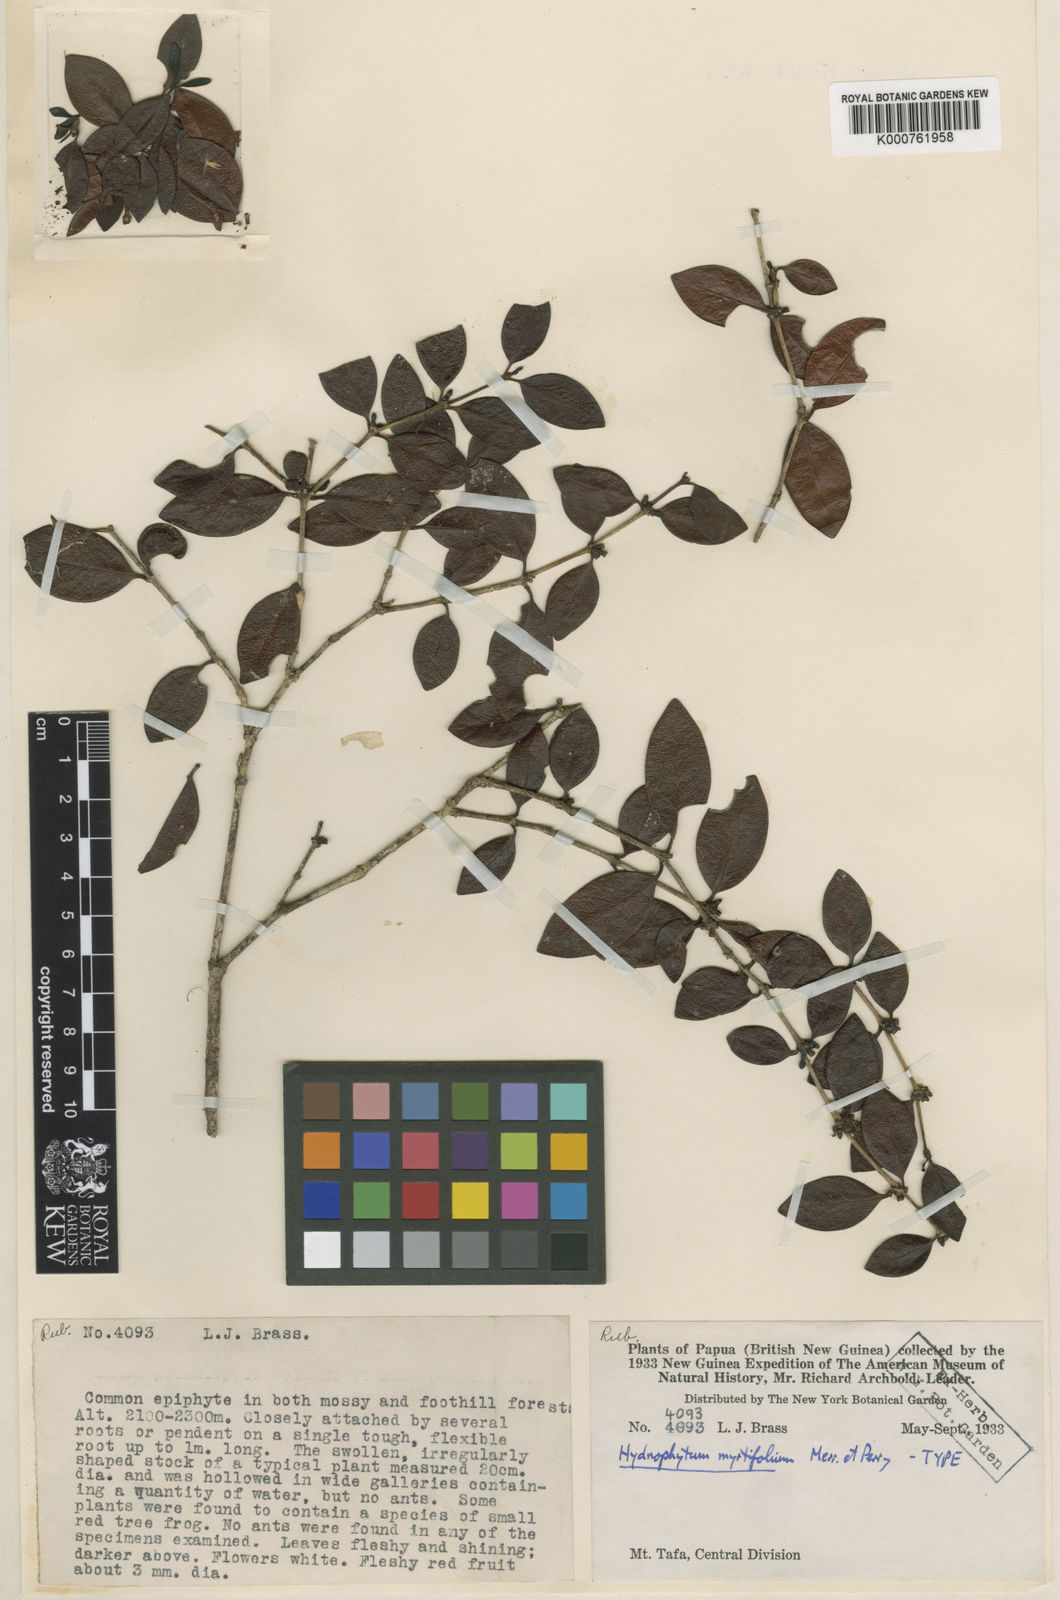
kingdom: Plantae
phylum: Tracheophyta
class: Magnoliopsida
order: Gentianales
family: Rubiaceae
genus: Hydnophytum
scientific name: Hydnophytum myrtifolium
